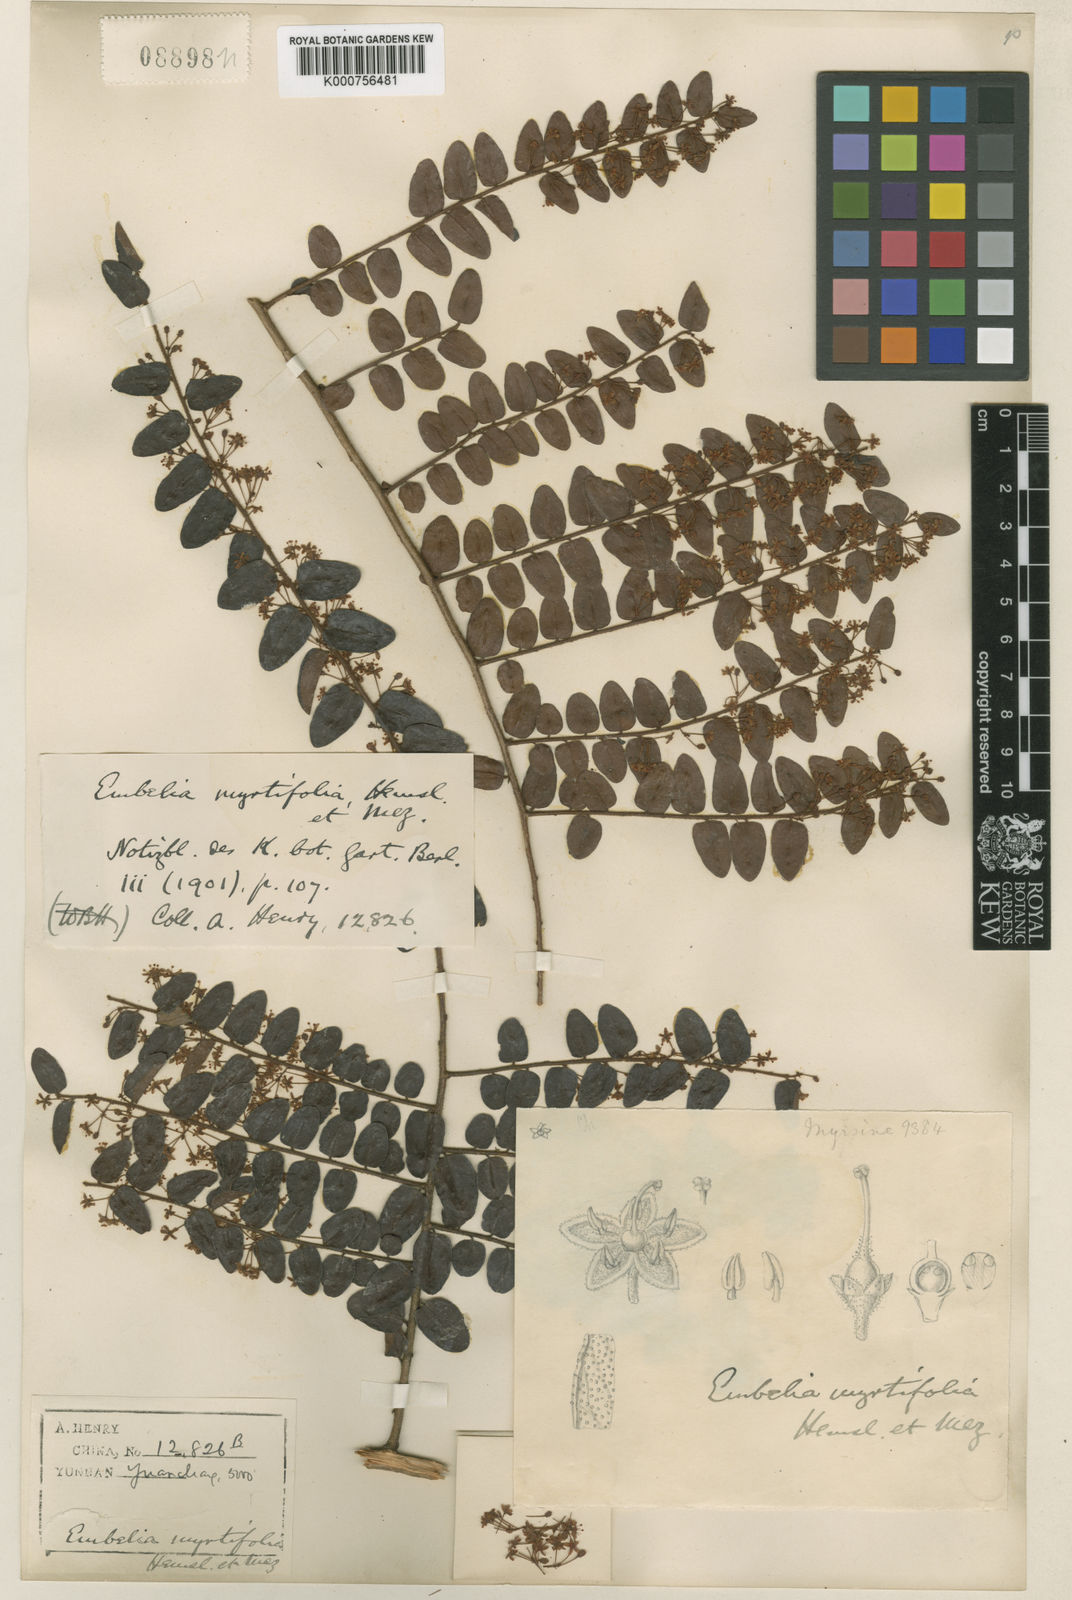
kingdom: Plantae
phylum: Tracheophyta
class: Magnoliopsida
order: Ericales
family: Primulaceae
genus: Embelia
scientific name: Embelia parviflora
